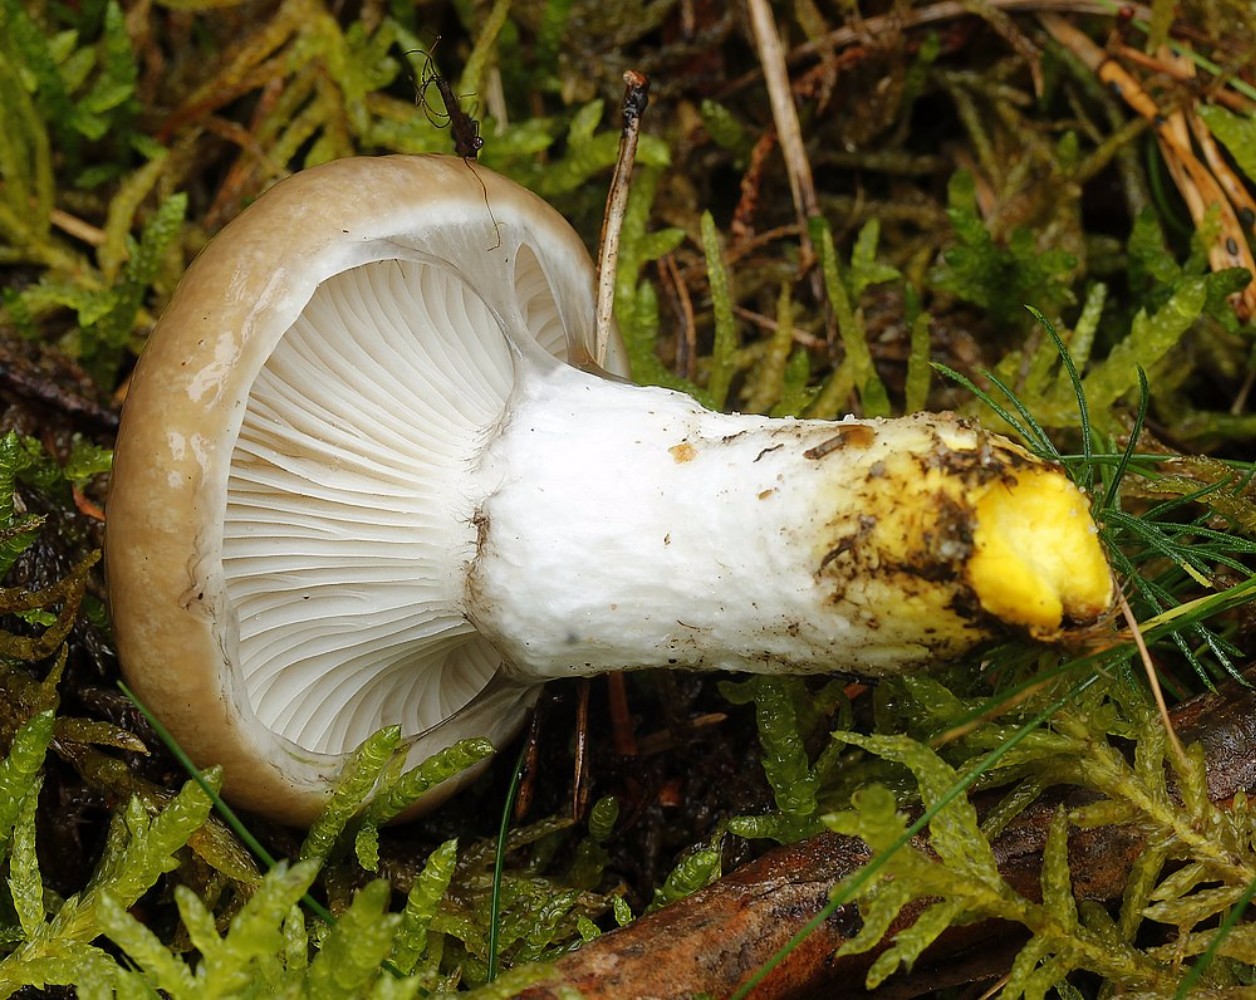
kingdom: Fungi
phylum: Basidiomycota
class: Agaricomycetes
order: Boletales
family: Gomphidiaceae
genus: Gomphidius
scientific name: Gomphidius glutinosus
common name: grå slimslør
